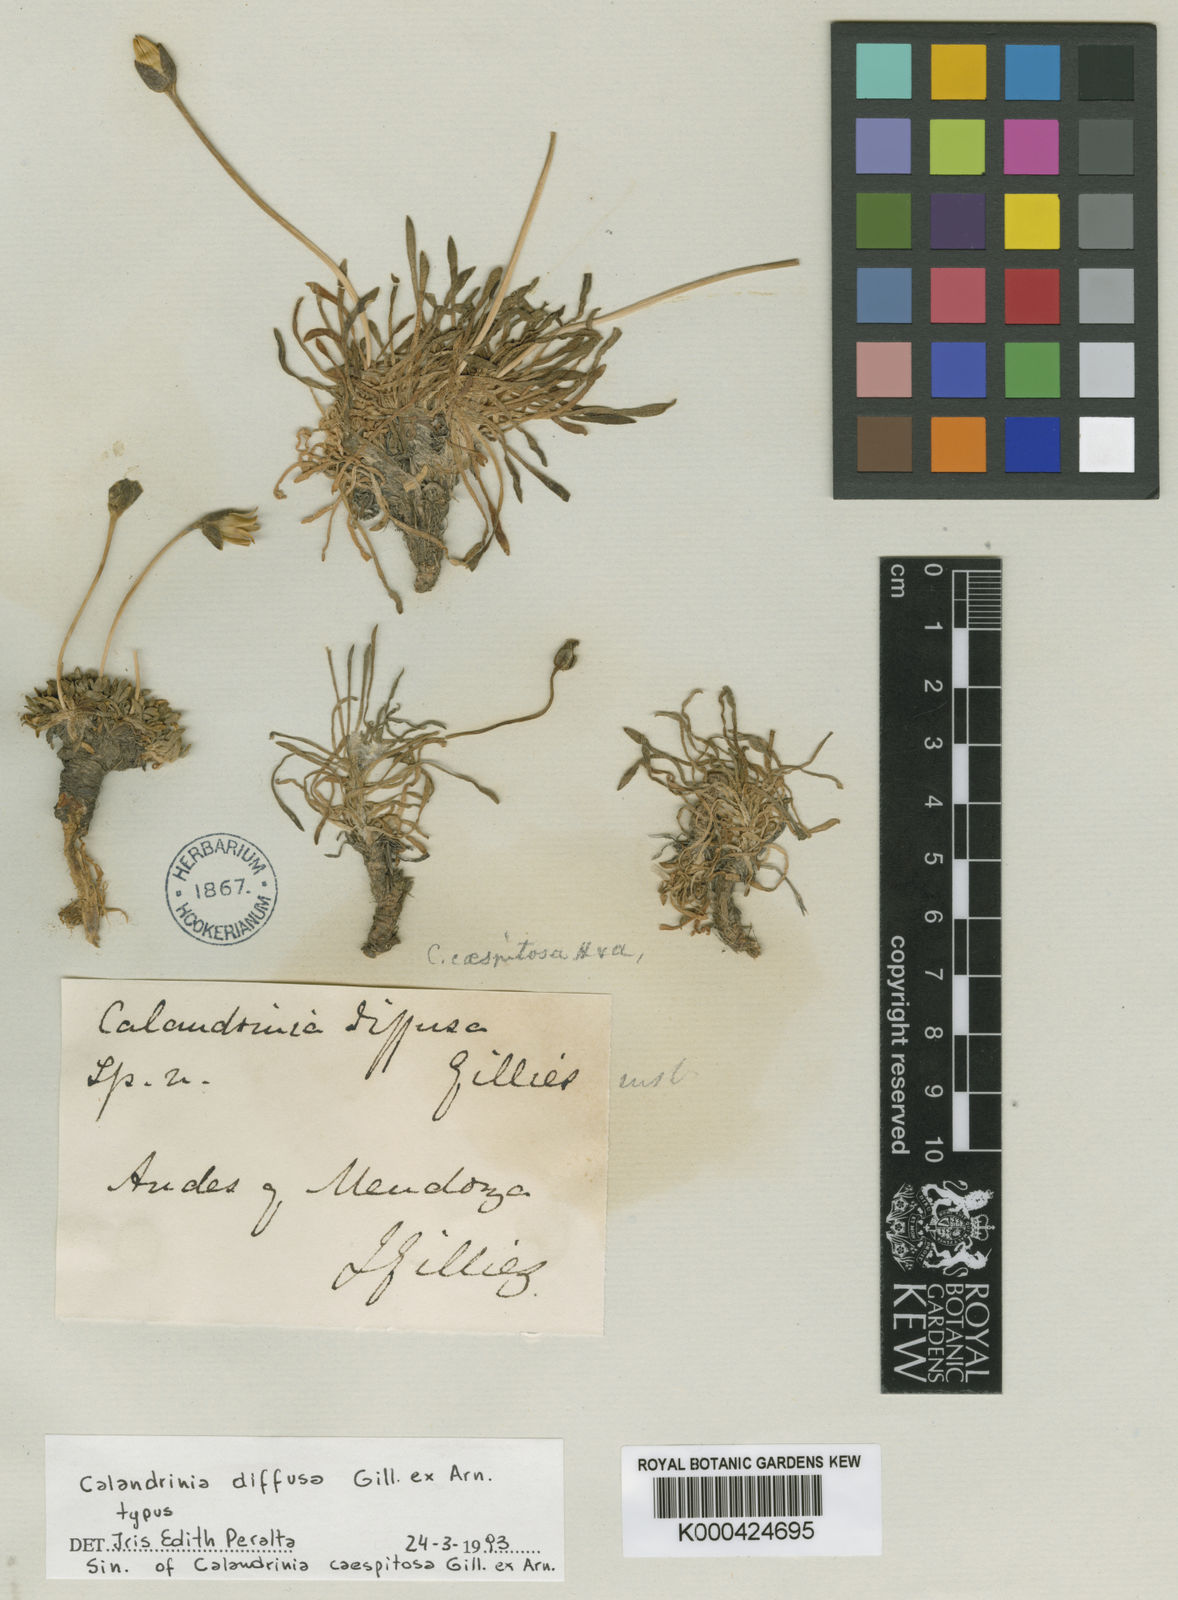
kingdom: Plantae
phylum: Tracheophyta
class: Magnoliopsida
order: Caryophyllales
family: Montiaceae
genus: Calandrinia
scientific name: Calandrinia caespitosa
